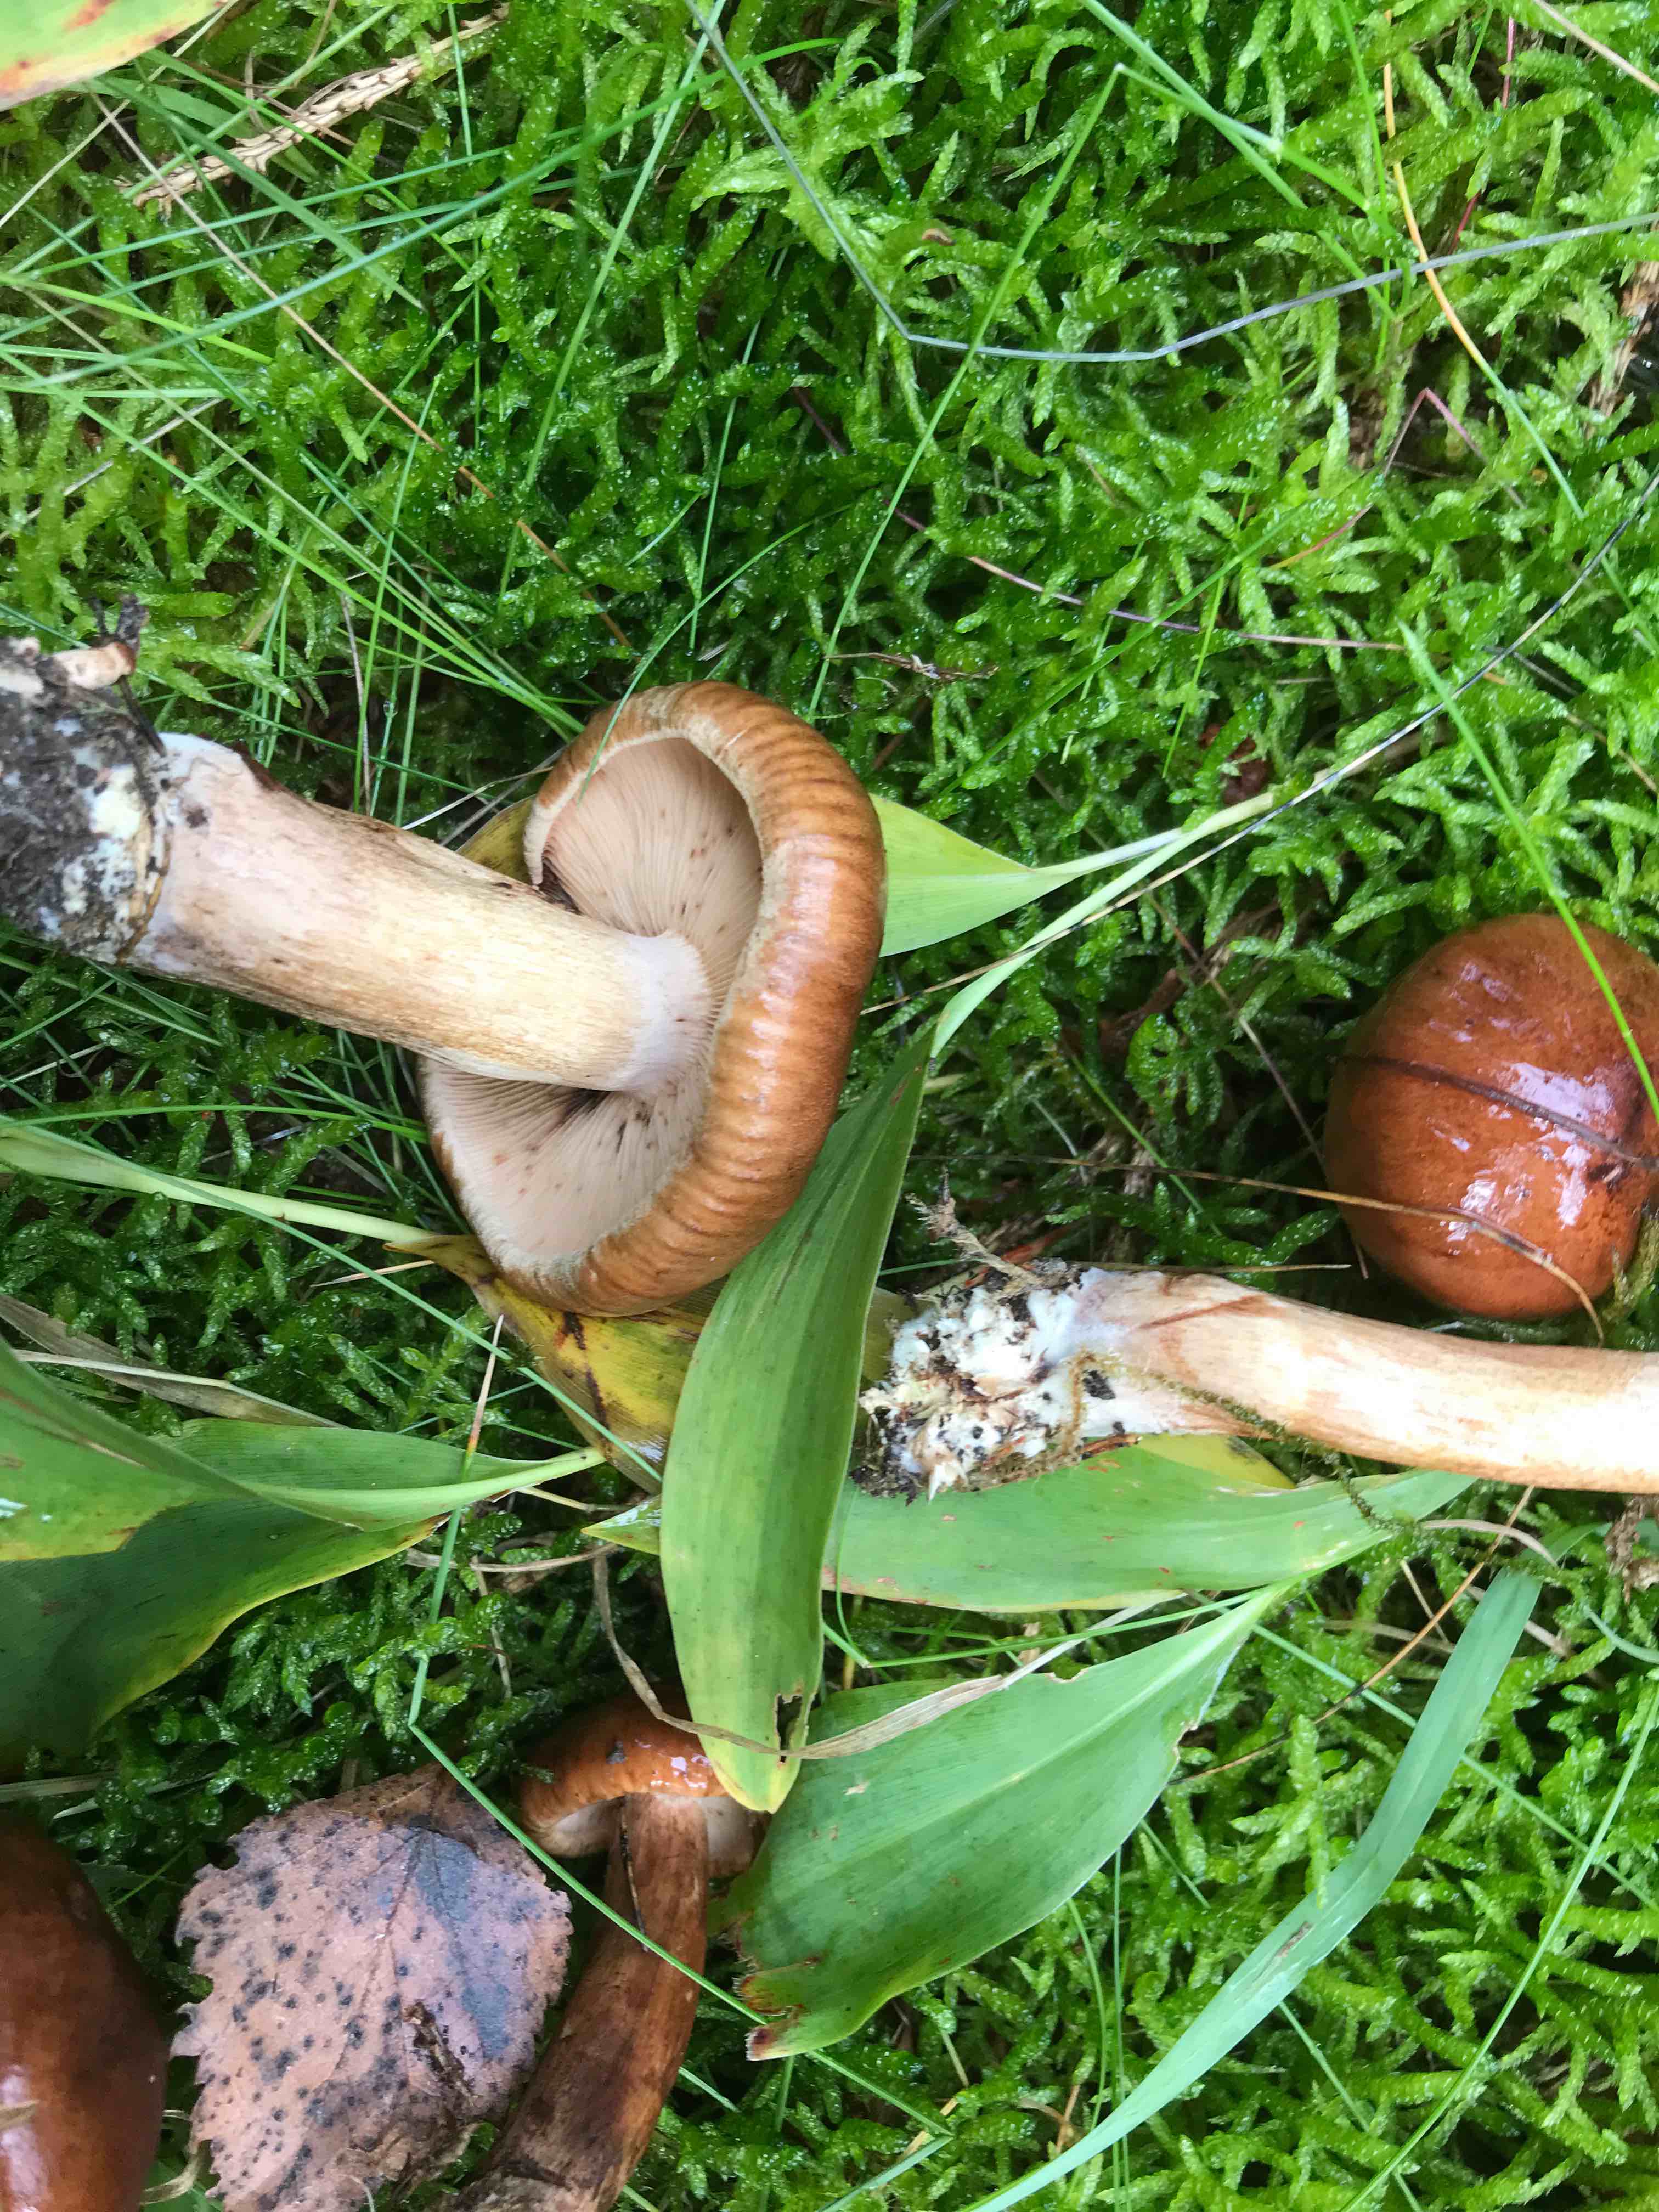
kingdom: Fungi
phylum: Basidiomycota
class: Agaricomycetes
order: Agaricales
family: Tricholomataceae
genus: Tricholoma
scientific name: Tricholoma fulvum
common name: birke-ridderhat
